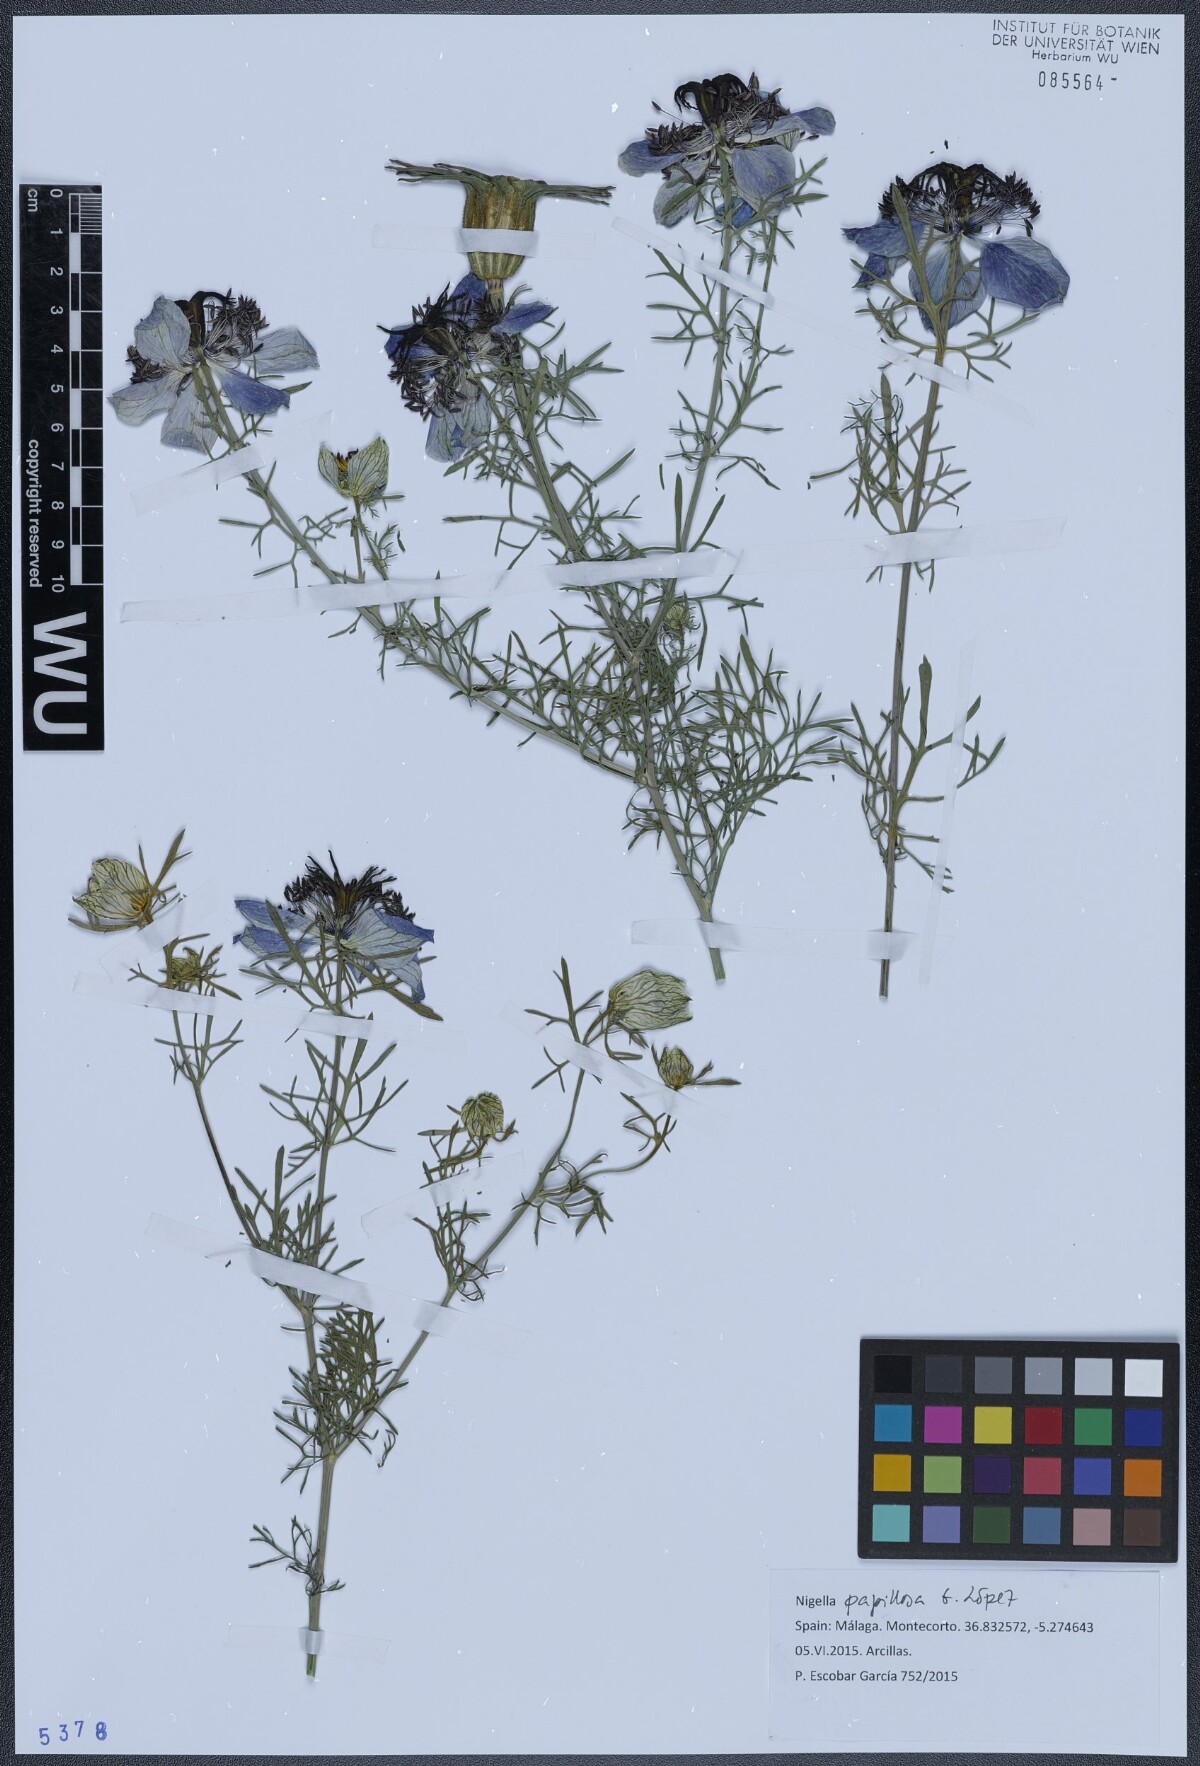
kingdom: Plantae
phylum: Tracheophyta
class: Magnoliopsida
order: Ranunculales
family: Ranunculaceae
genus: Nigella
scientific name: Nigella papillosa
